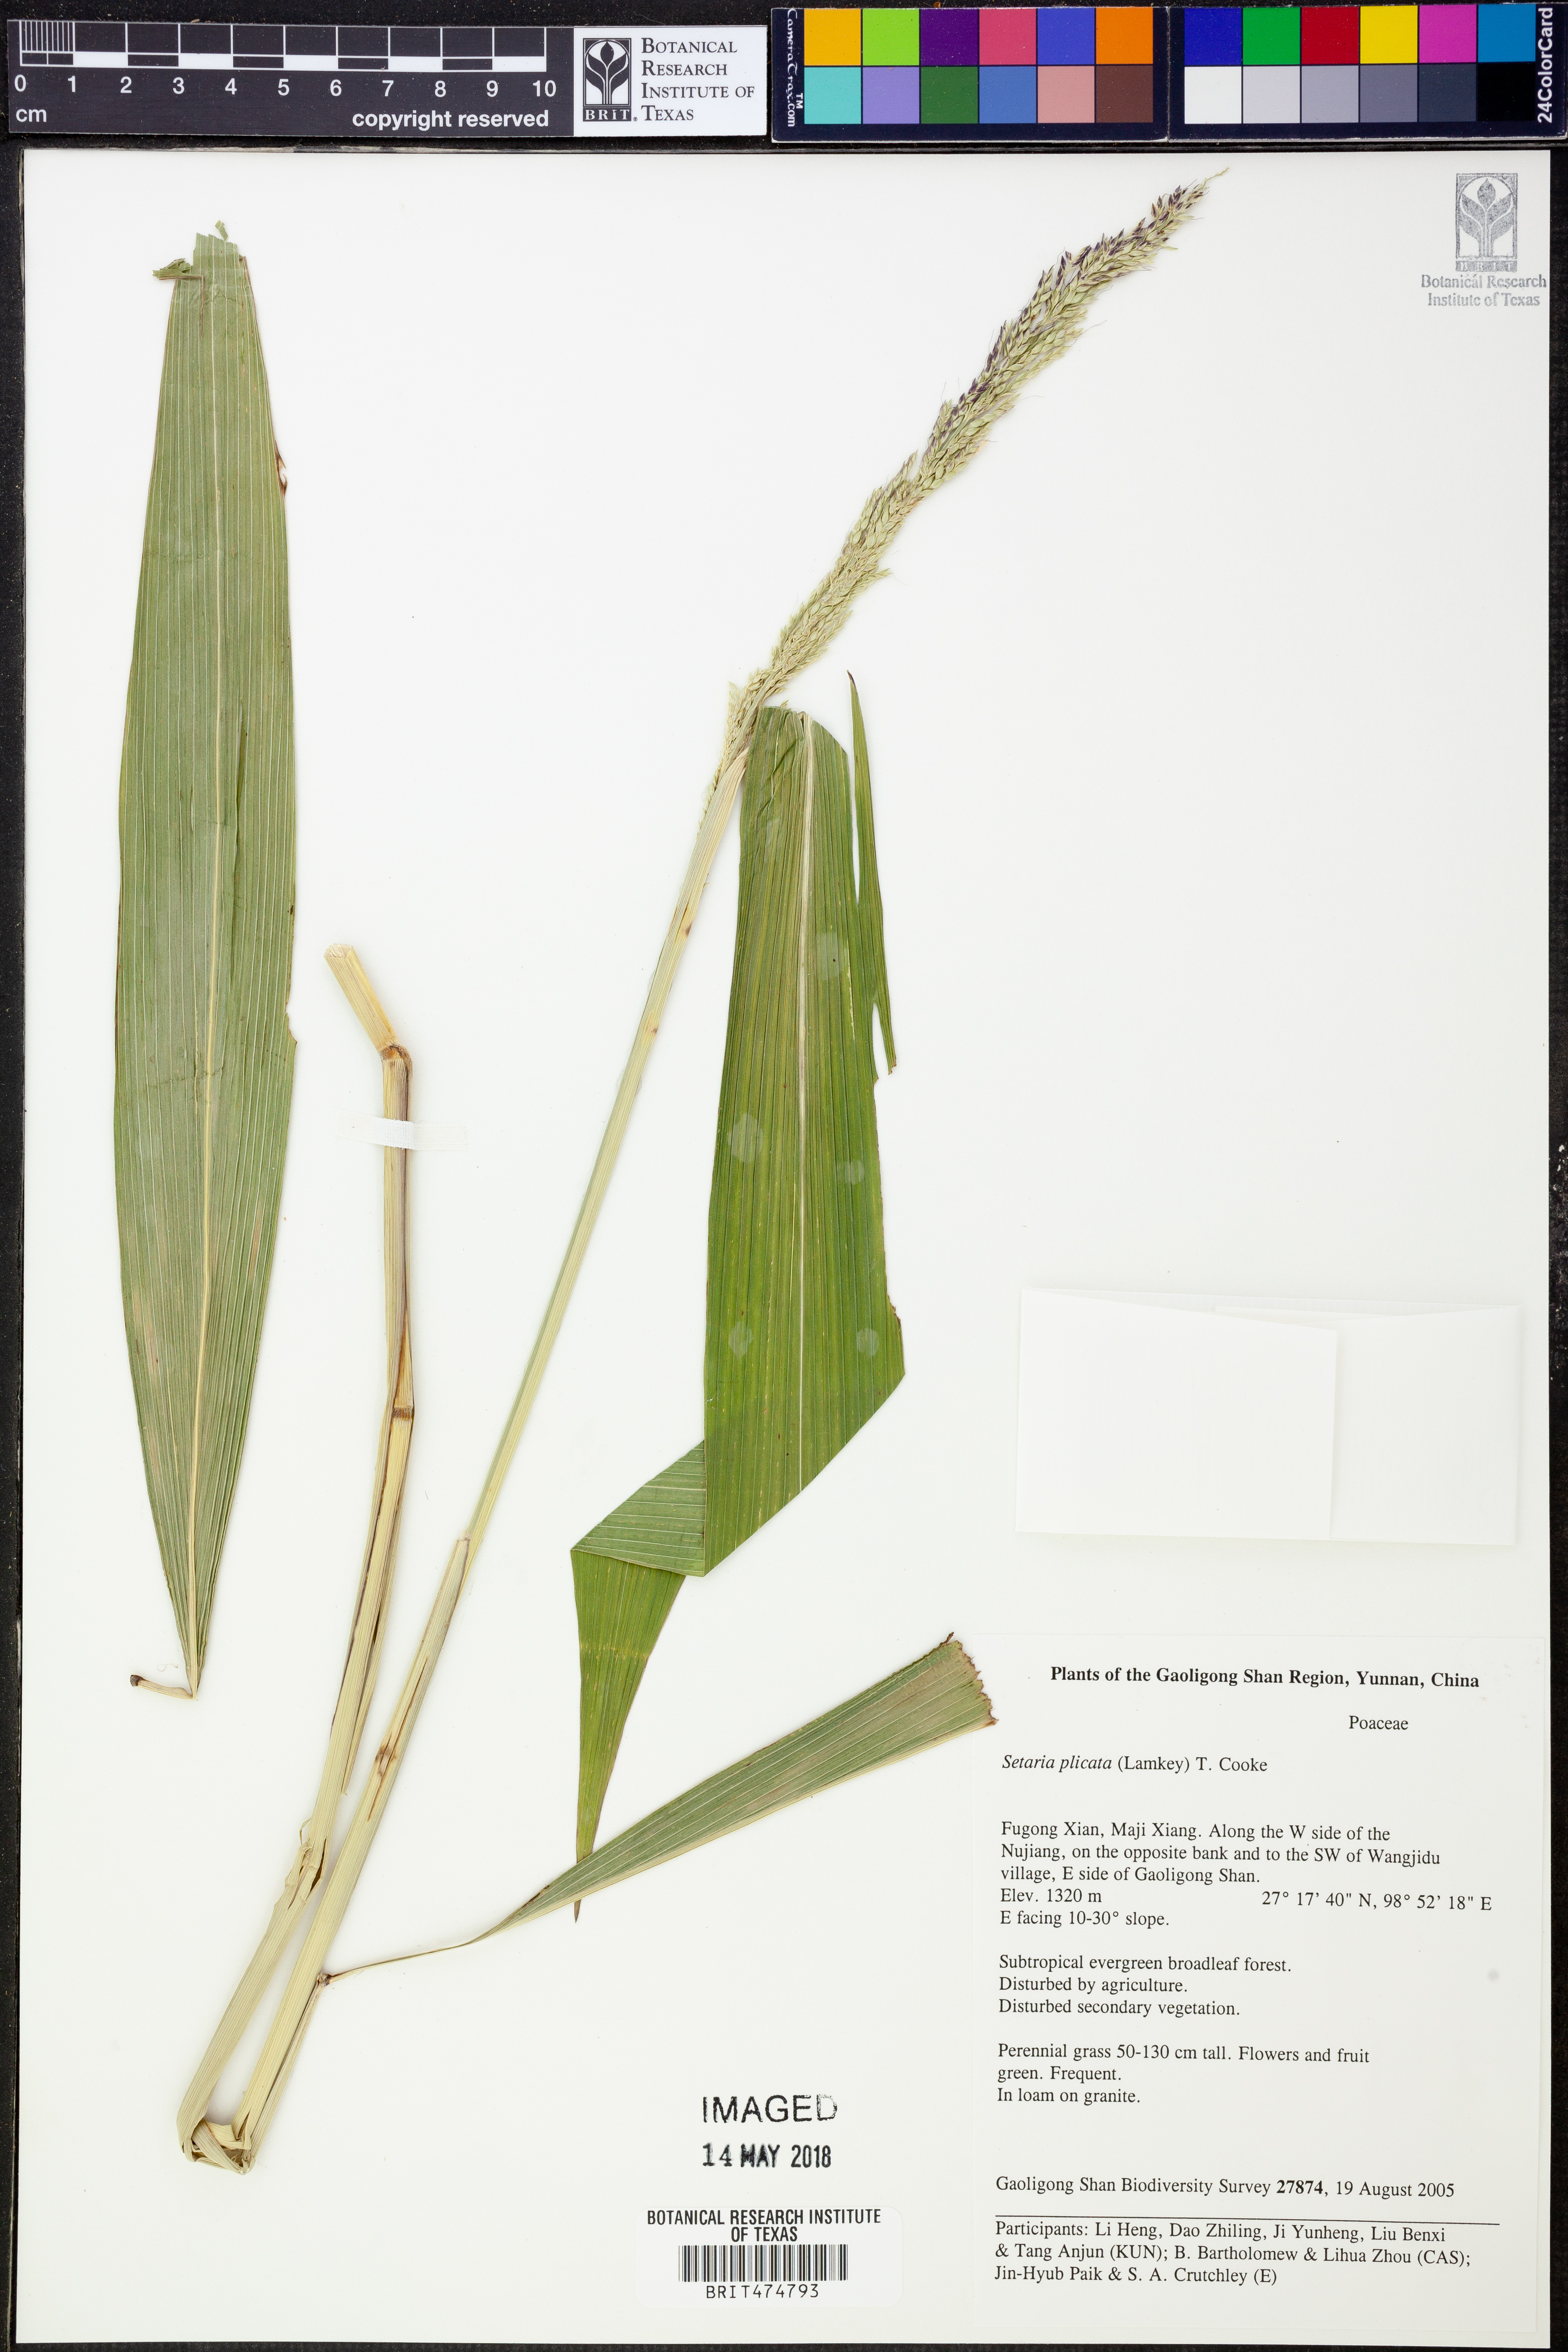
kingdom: Plantae
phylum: Tracheophyta
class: Liliopsida
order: Poales
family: Poaceae
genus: Setaria
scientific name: Setaria plicata
